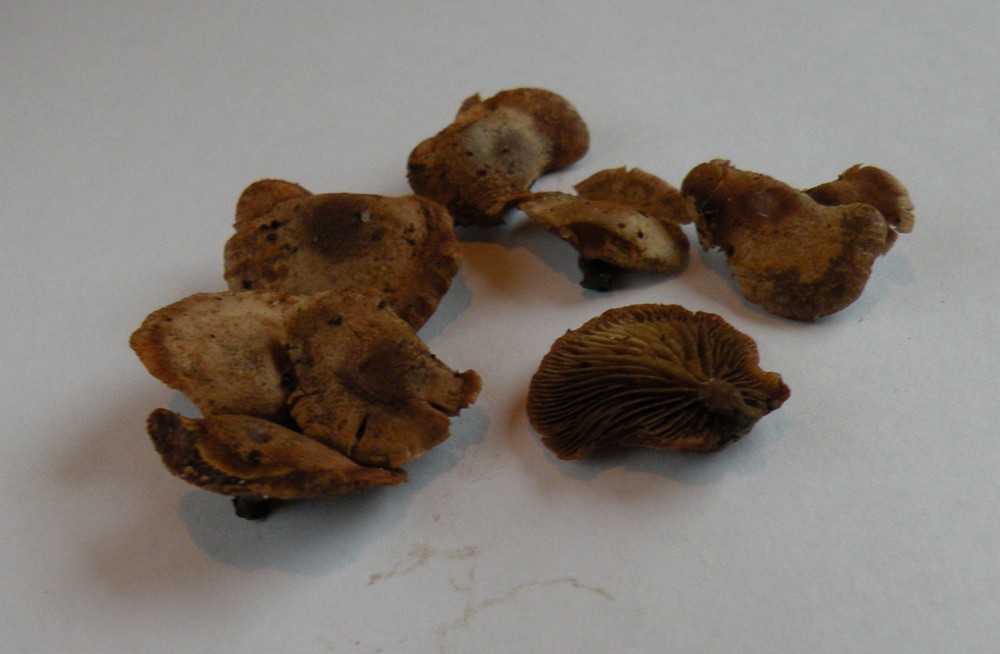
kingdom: Fungi
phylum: Basidiomycota
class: Agaricomycetes
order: Agaricales
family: Strophariaceae
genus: Deconica
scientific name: Deconica horizontalis
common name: ved-stråhat
